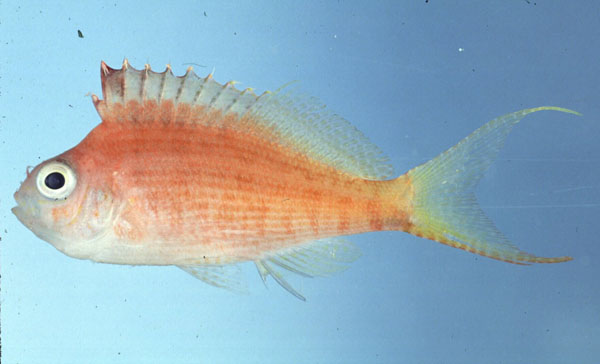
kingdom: Animalia
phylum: Chordata
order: Perciformes
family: Cirrhitidae
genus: Cyprinocirrhites
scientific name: Cyprinocirrhites polyactis
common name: Swallowtail hawkfish
